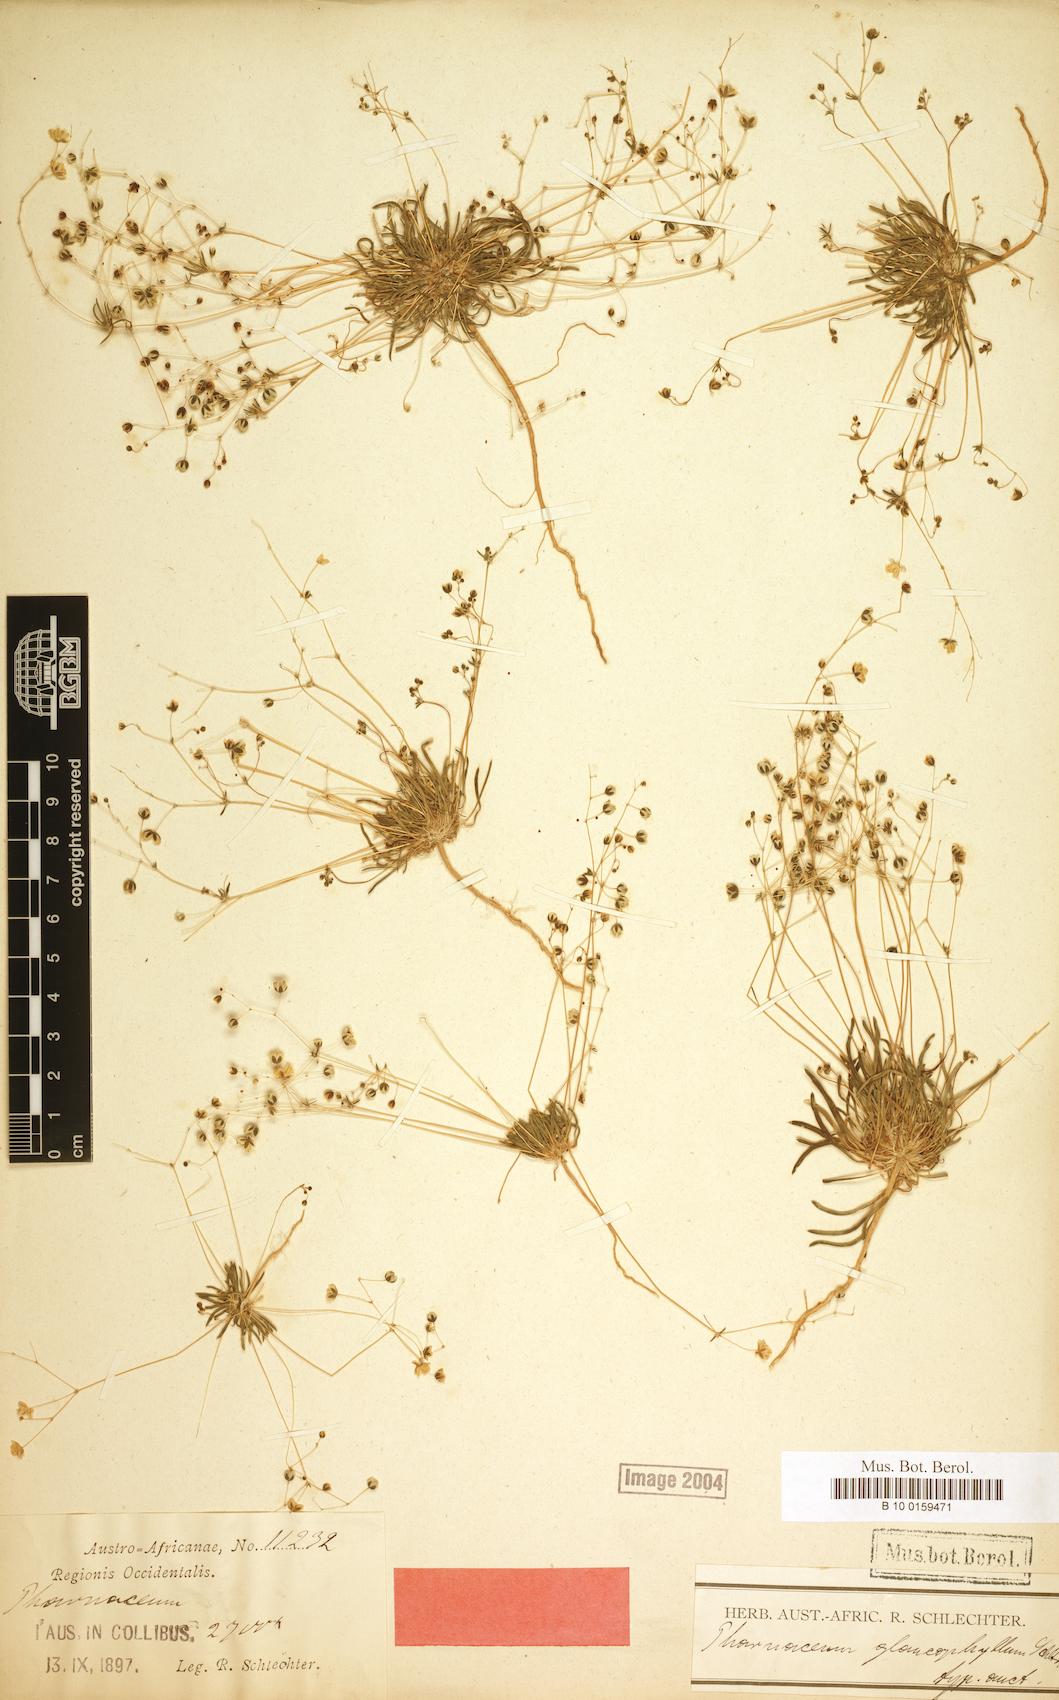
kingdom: Plantae
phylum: Tracheophyta
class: Magnoliopsida
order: Caryophyllales
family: Molluginaceae
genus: Pharnaceum
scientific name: Pharnaceum
